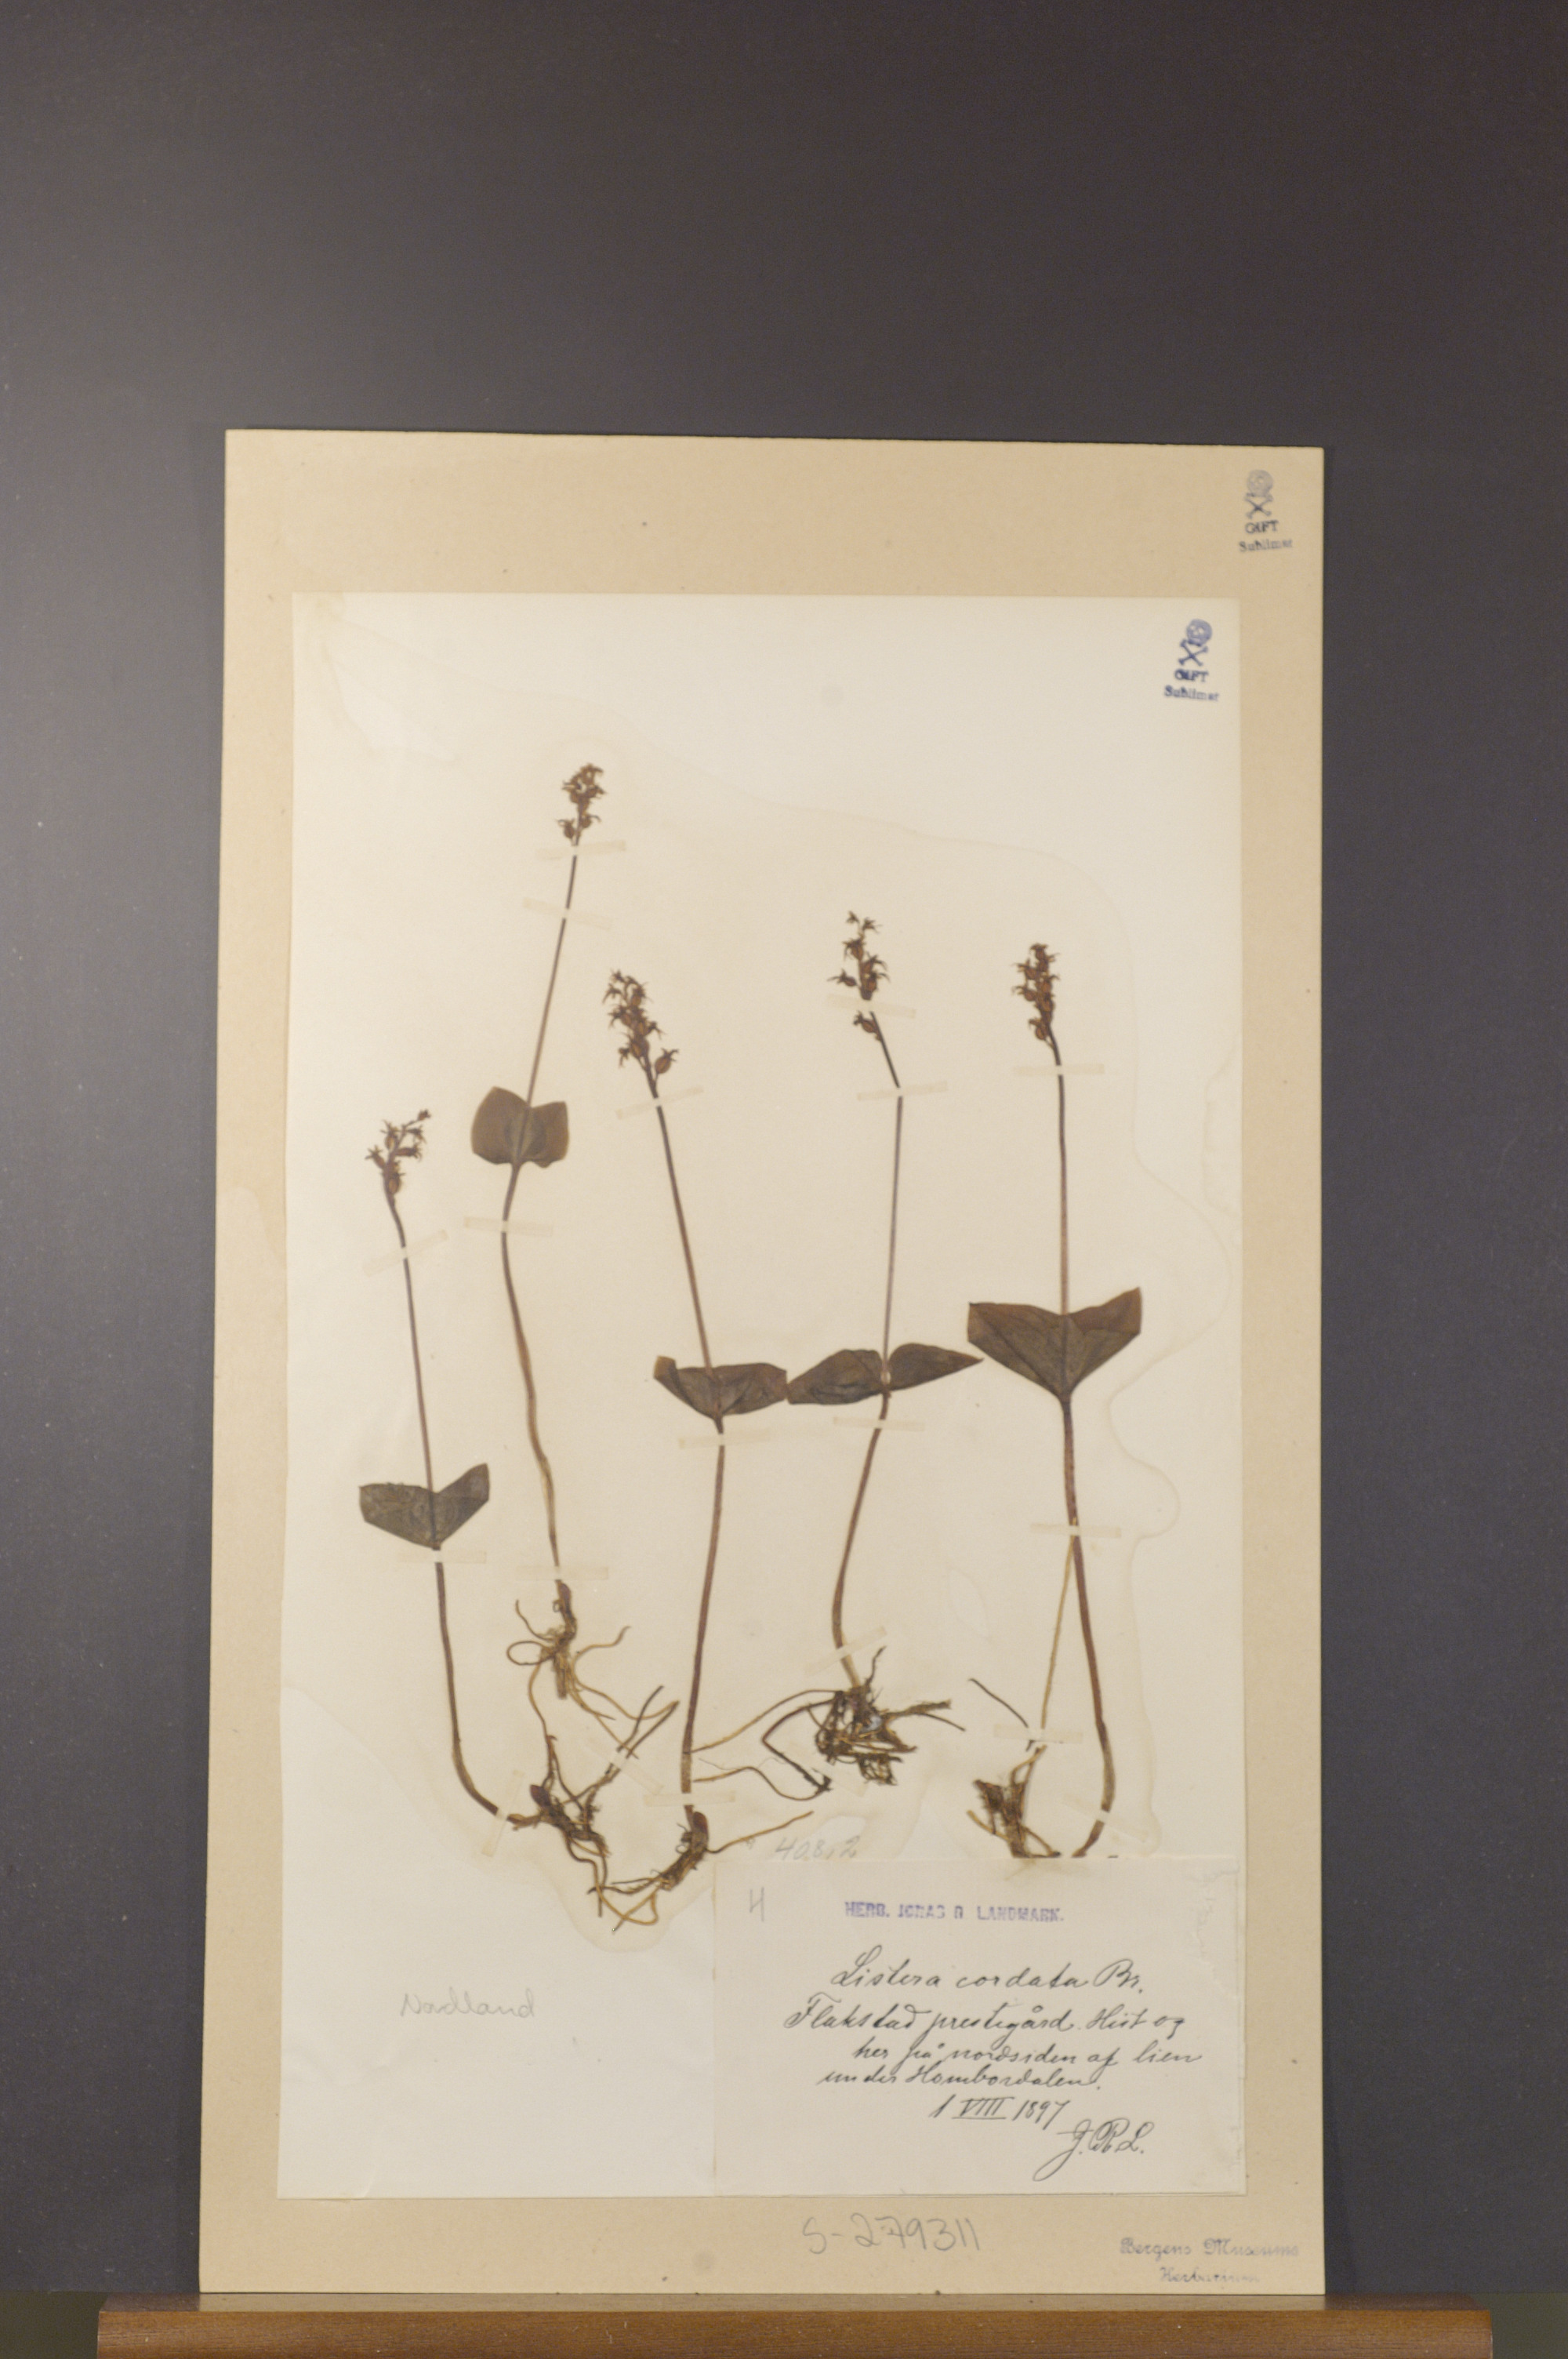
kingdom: Plantae
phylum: Tracheophyta
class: Liliopsida
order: Asparagales
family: Orchidaceae
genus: Neottia
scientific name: Neottia cordata
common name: Lesser twayblade
